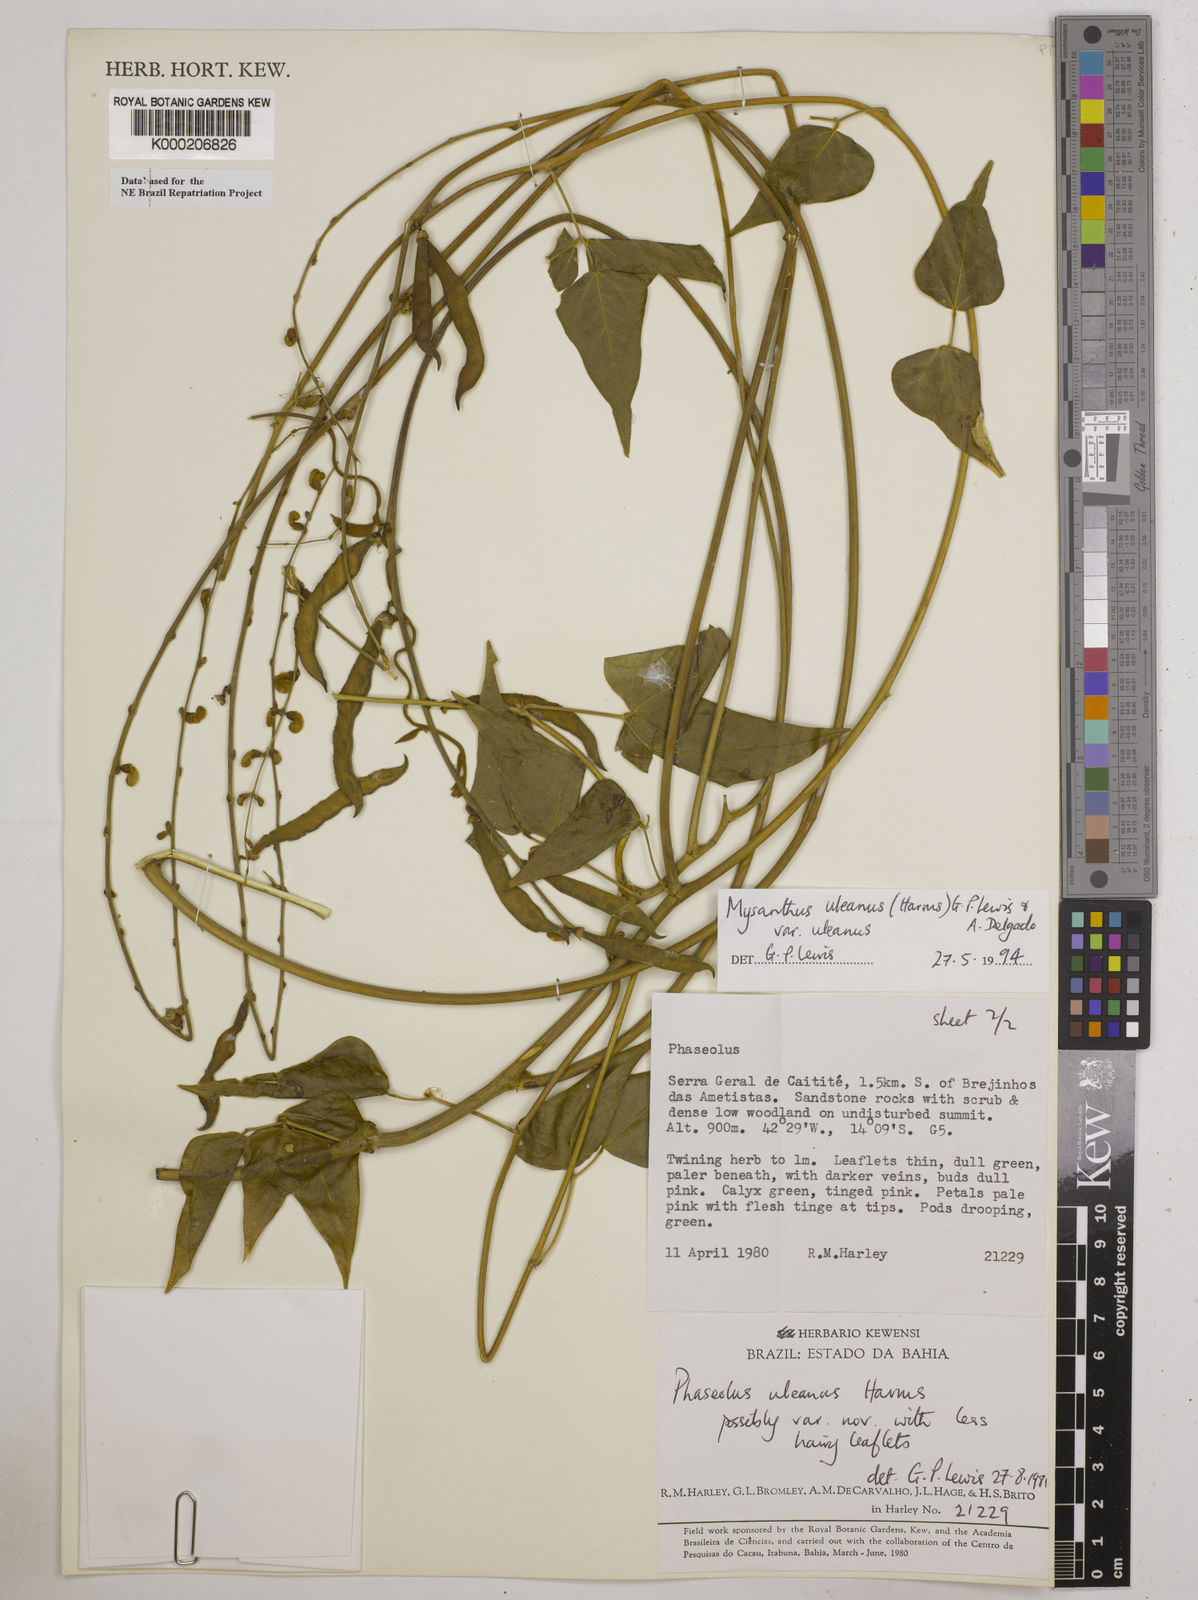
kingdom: Plantae
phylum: Tracheophyta
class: Magnoliopsida
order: Fabales
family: Fabaceae
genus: Mysanthus
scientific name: Mysanthus uleanus
